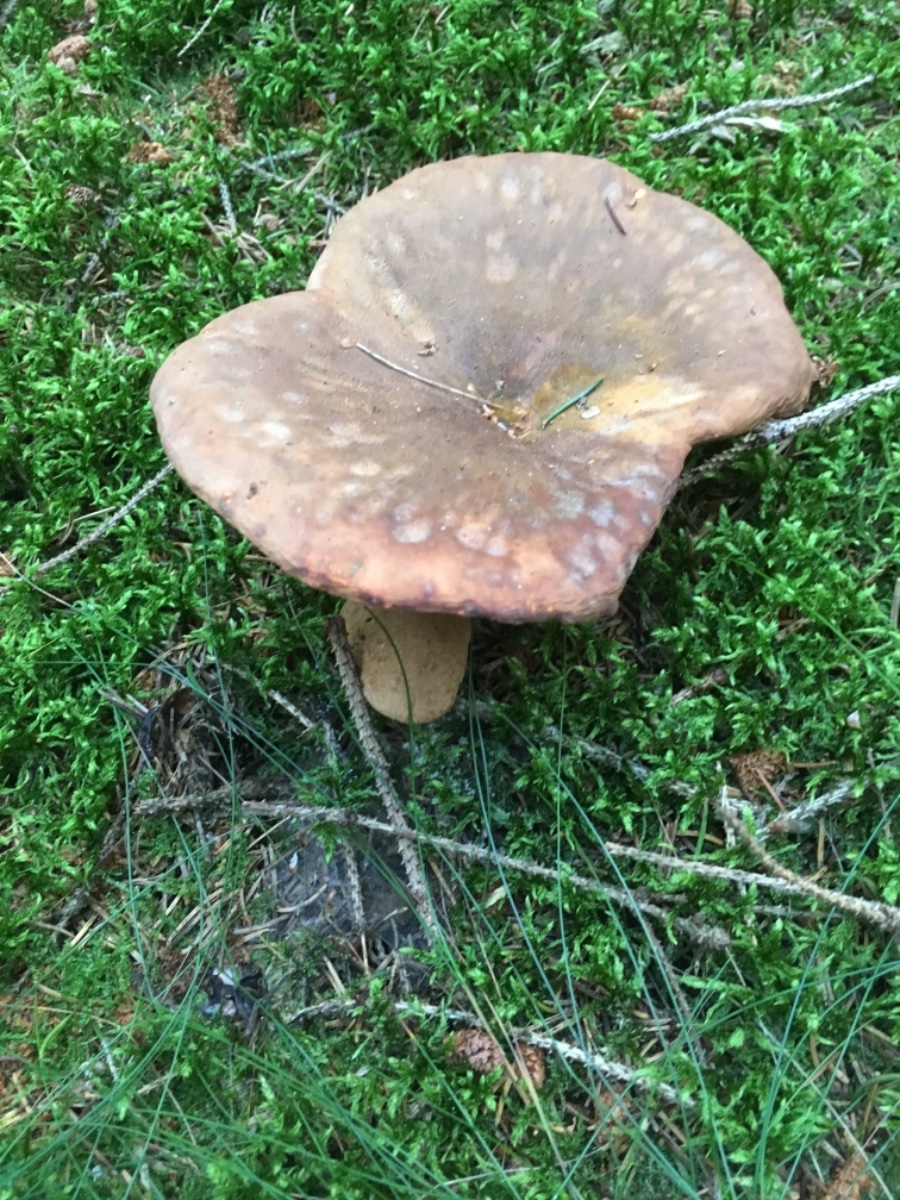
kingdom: Fungi
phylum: Basidiomycota
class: Agaricomycetes
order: Boletales
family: Tapinellaceae
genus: Tapinella
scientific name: Tapinella atrotomentosa
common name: sortfiltet viftesvamp
